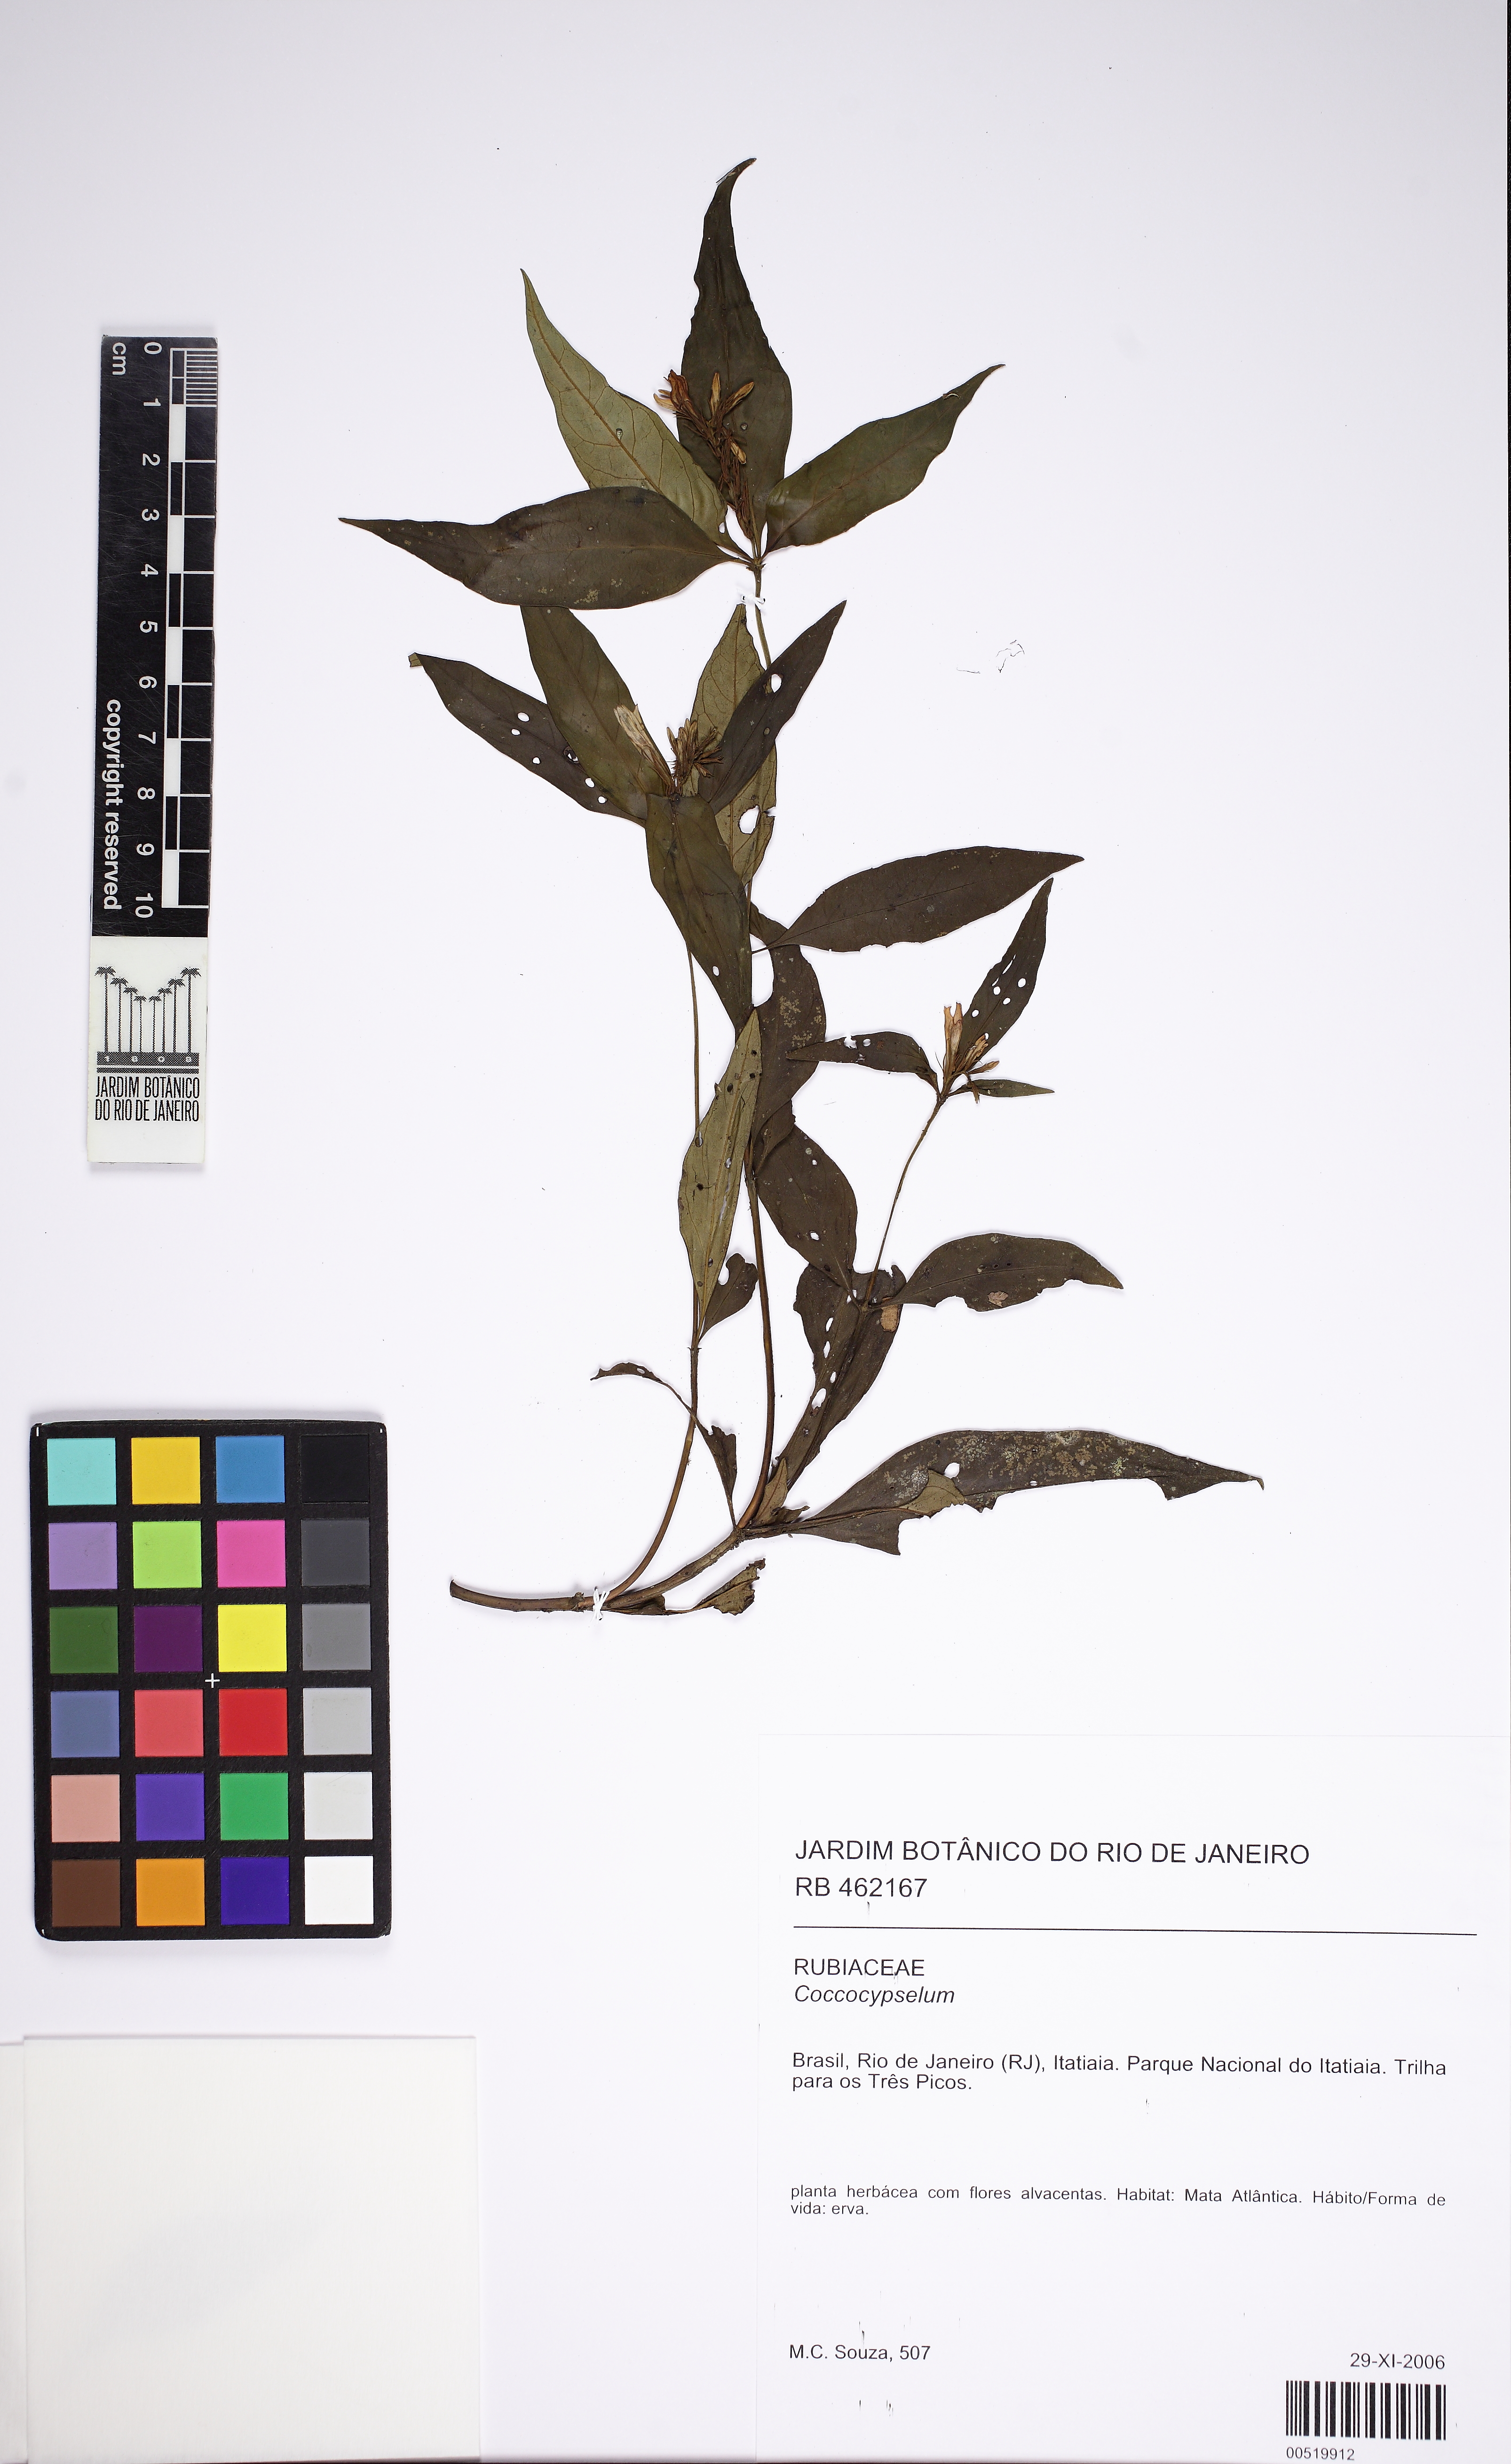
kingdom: Plantae
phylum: Tracheophyta
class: Magnoliopsida
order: Gentianales
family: Loganiaceae
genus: Spigelia
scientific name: Spigelia
